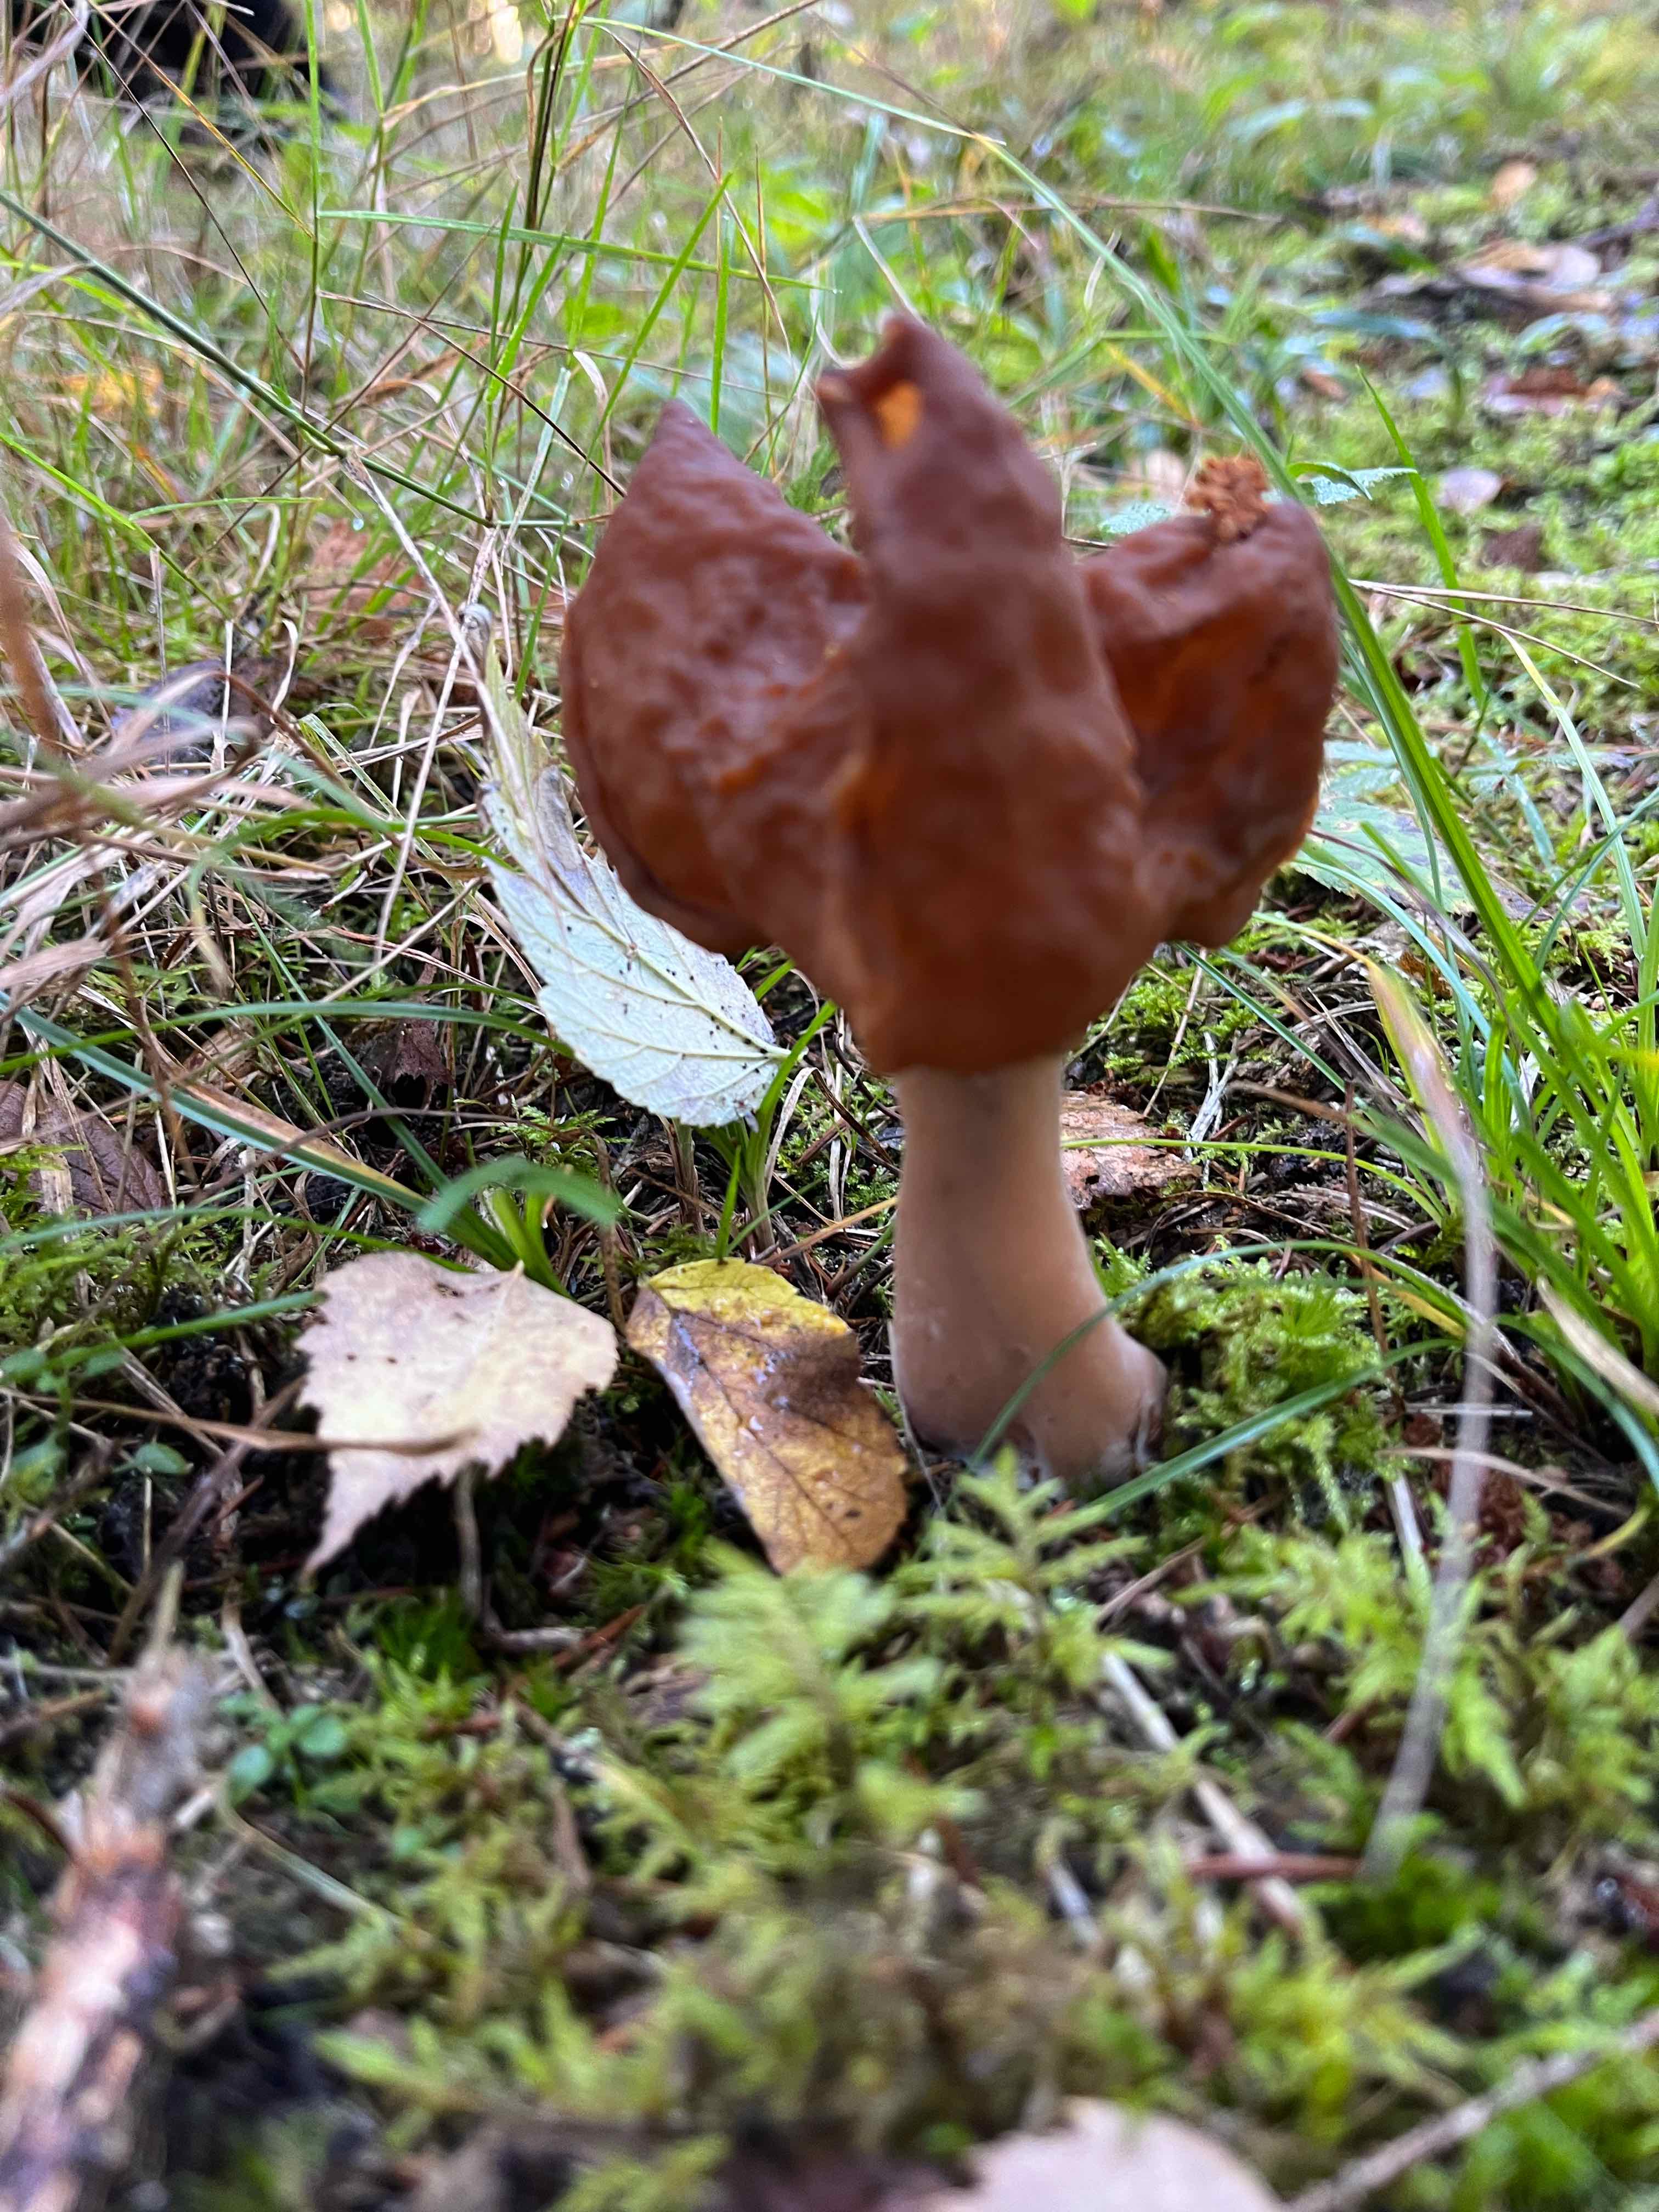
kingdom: Fungi
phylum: Ascomycota
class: Pezizomycetes
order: Pezizales
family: Discinaceae
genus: Gyromitra
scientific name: Gyromitra infula
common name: bispehue-stenmorkel
